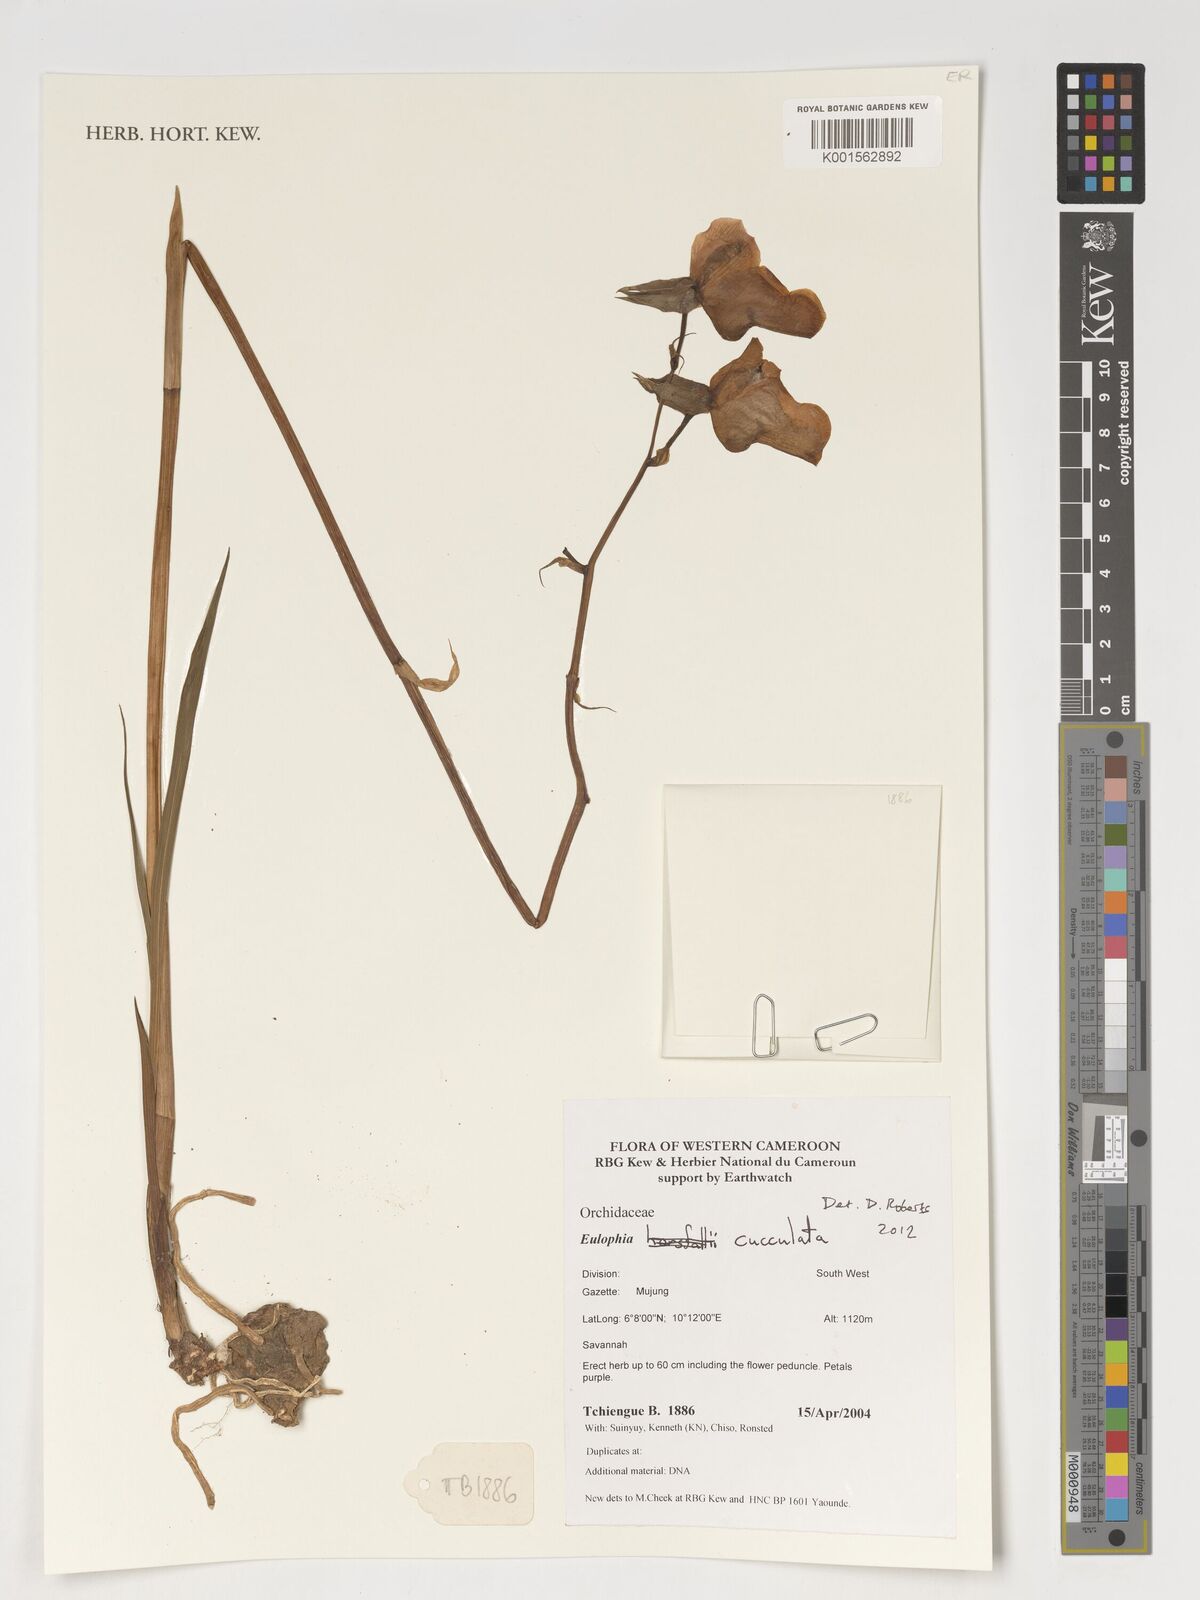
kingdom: Plantae
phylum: Tracheophyta
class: Liliopsida
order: Asparagales
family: Orchidaceae
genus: Eulophia
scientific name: Eulophia cucullata
